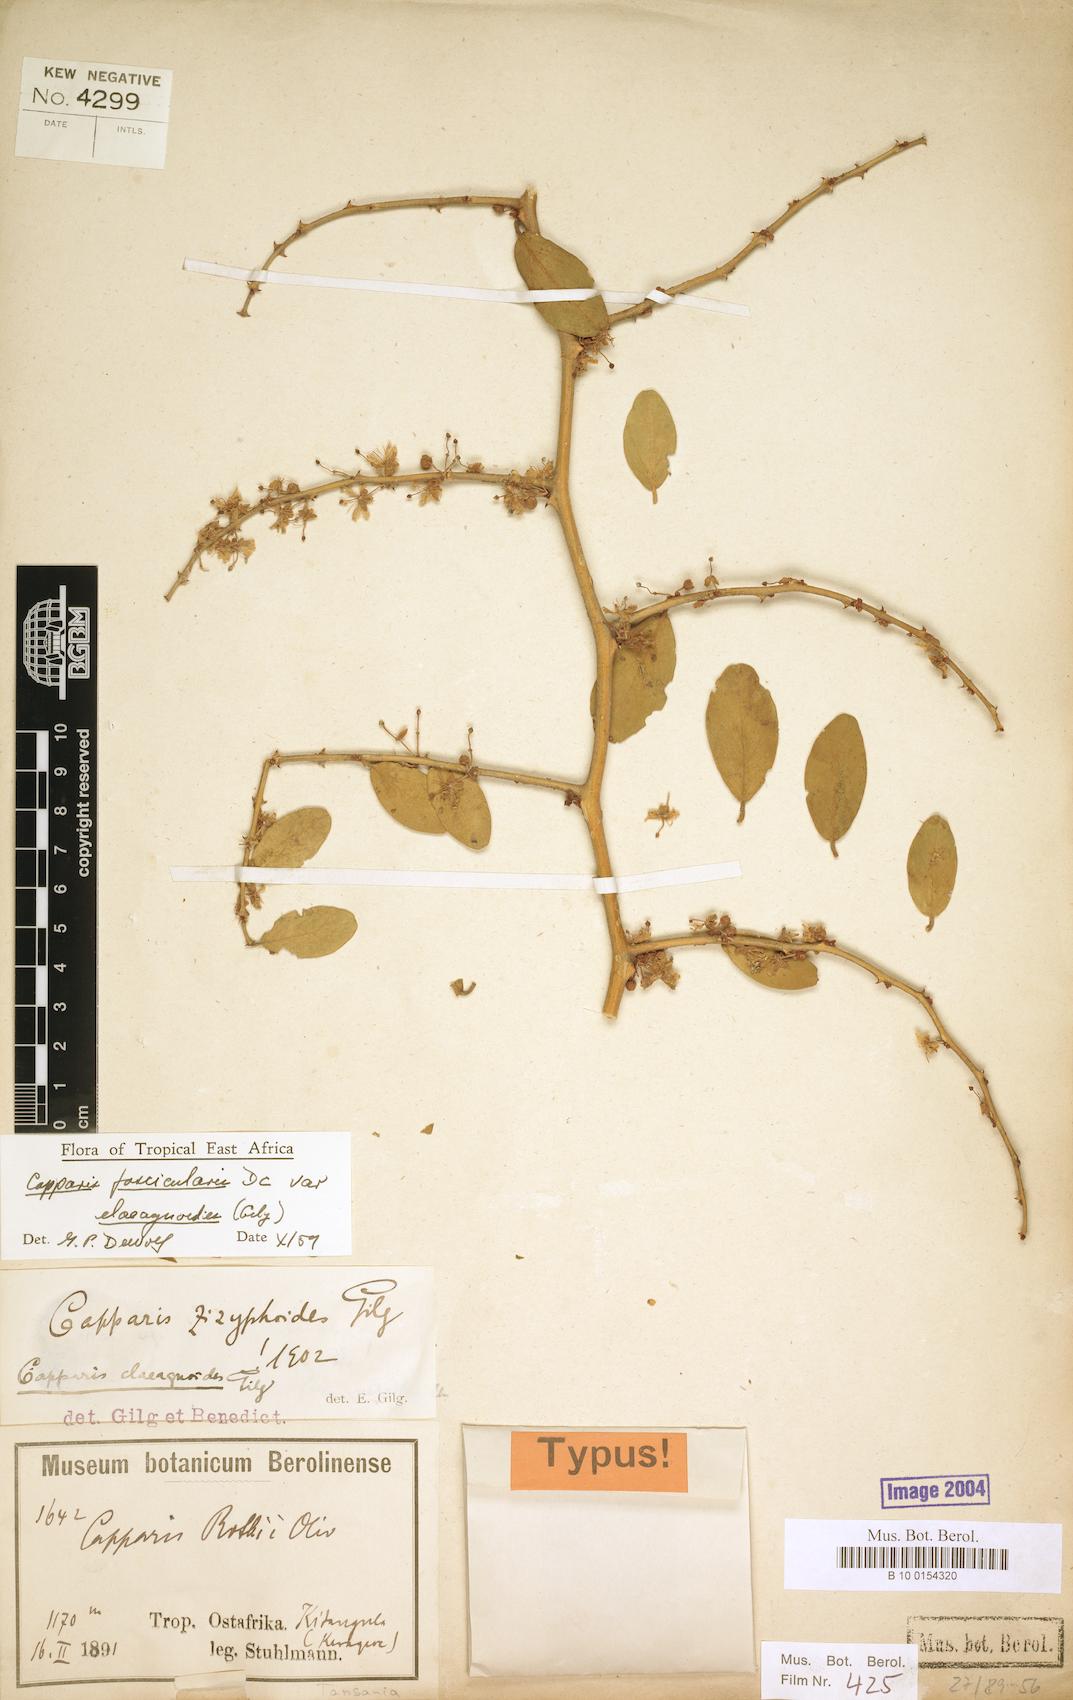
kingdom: Plantae
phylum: Tracheophyta
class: Magnoliopsida
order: Brassicales
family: Capparaceae
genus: Capparis
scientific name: Capparis fascicularis
